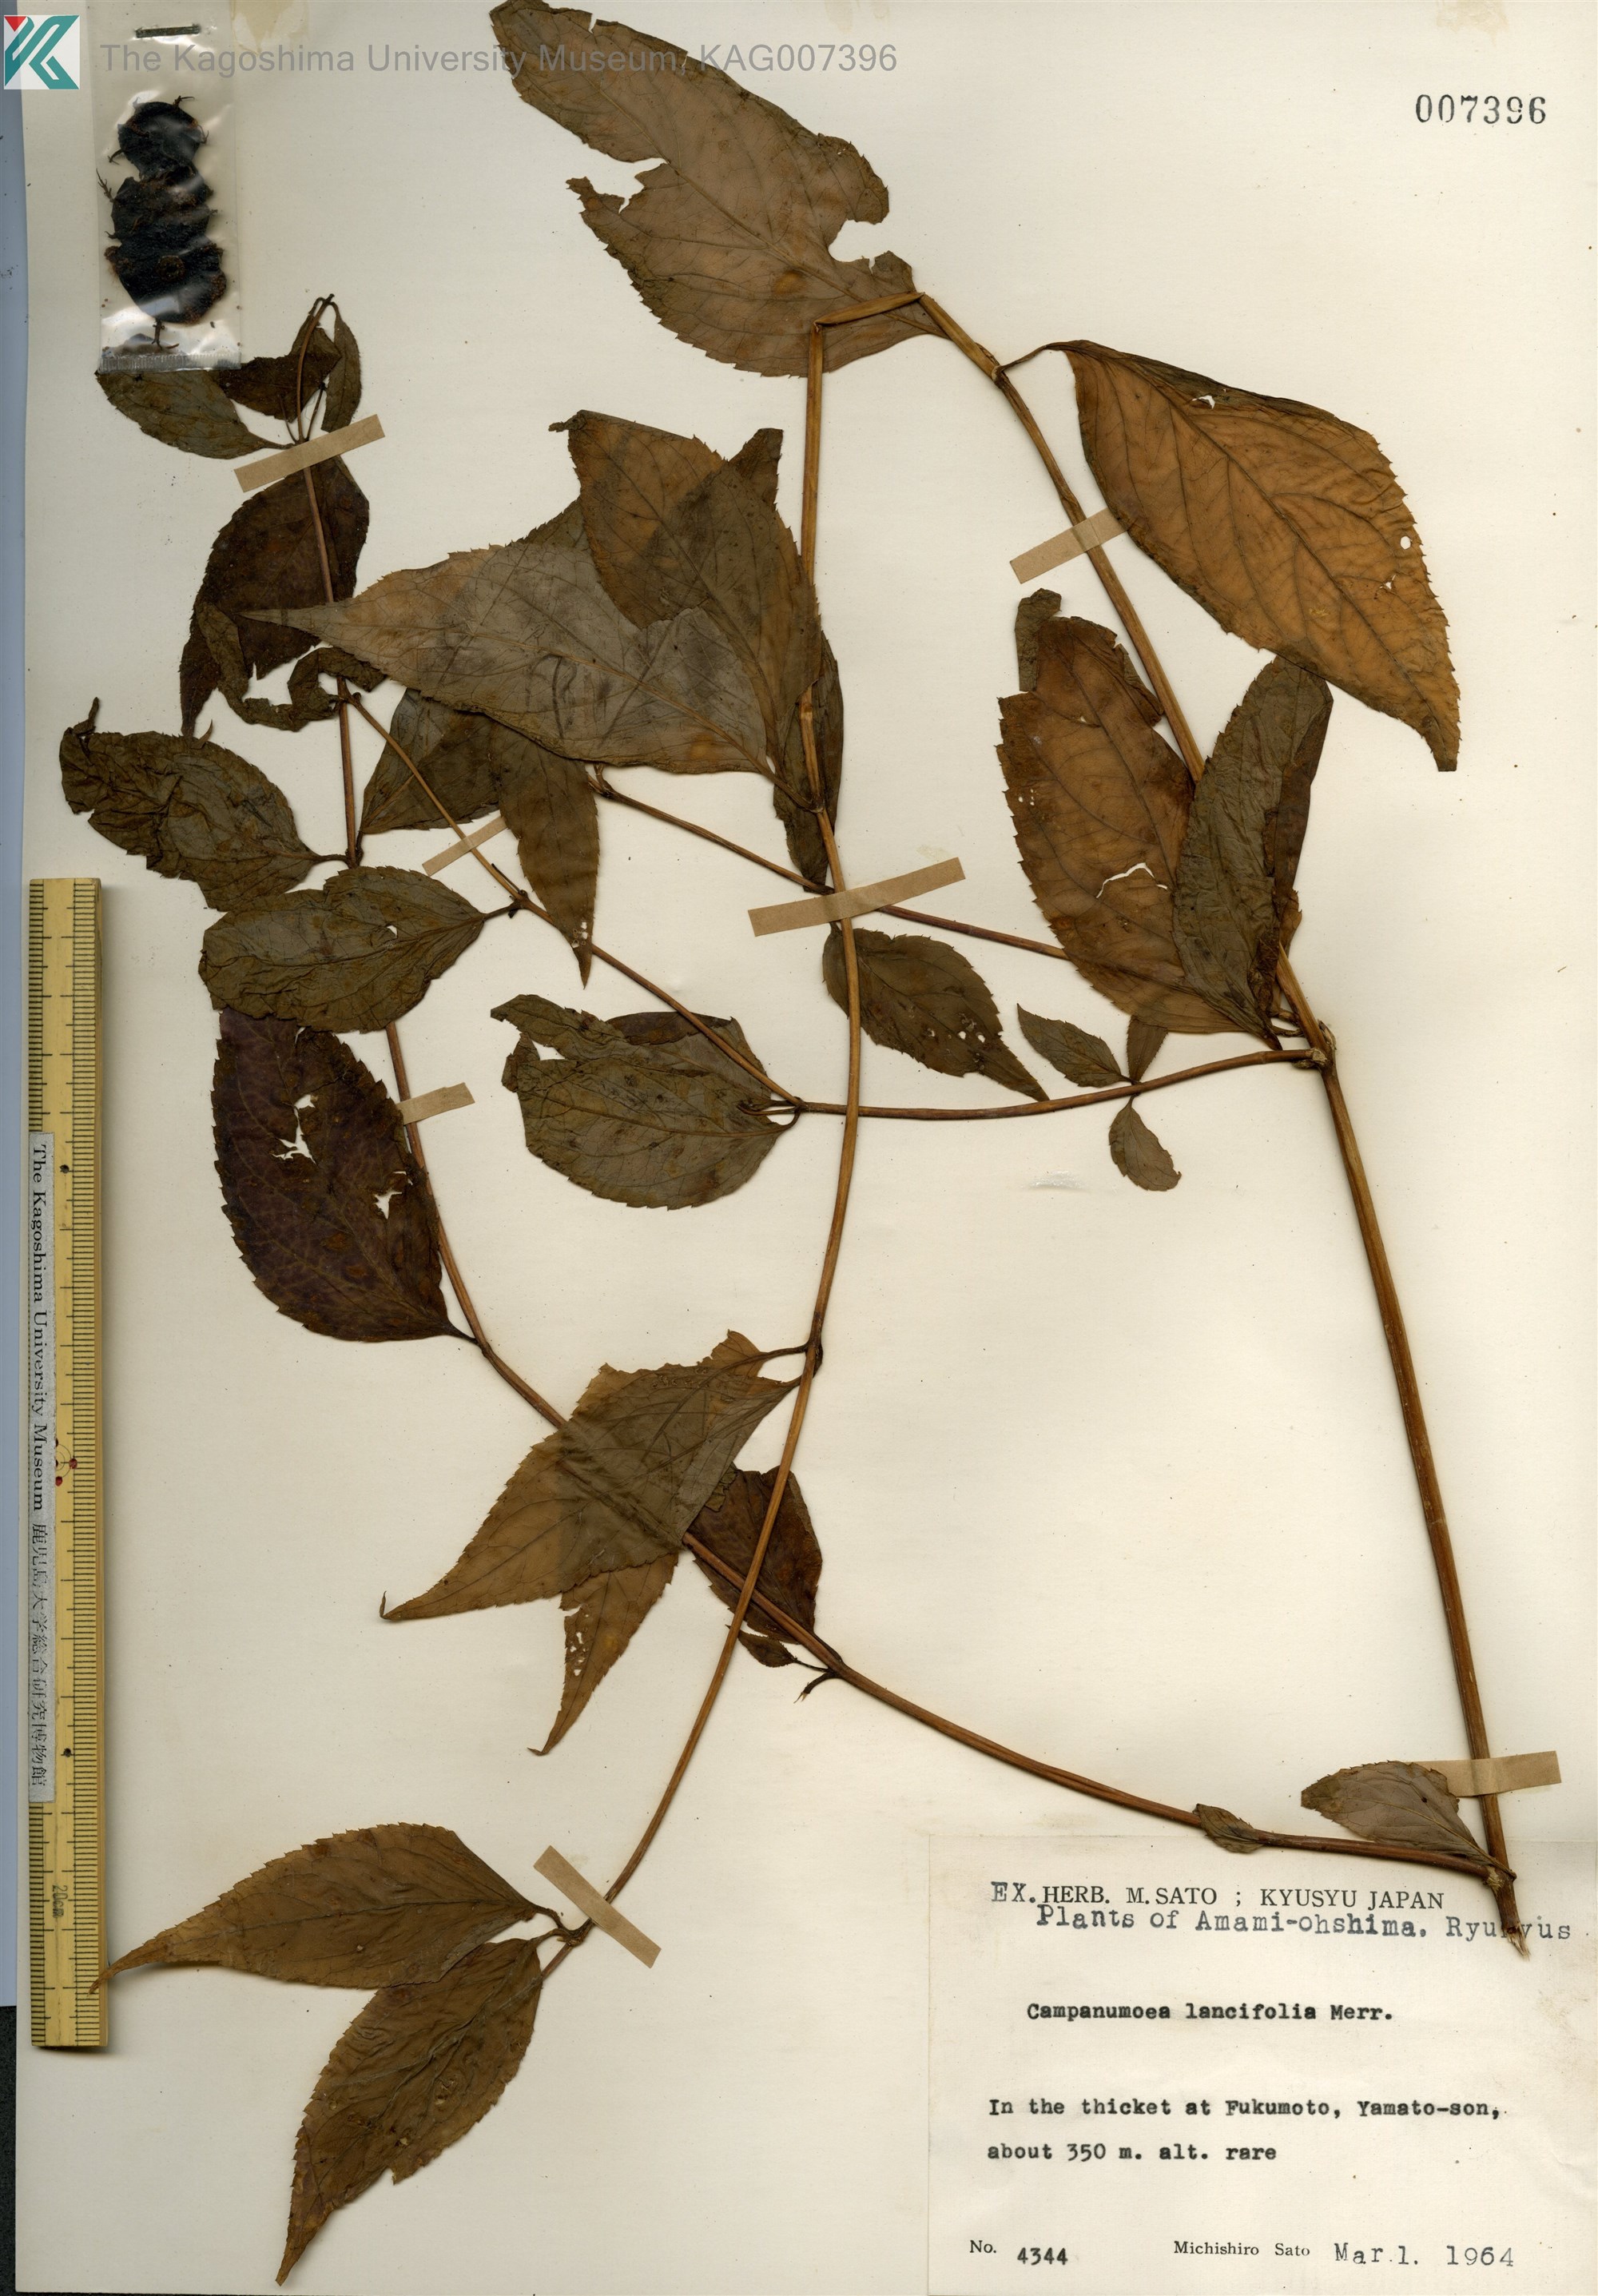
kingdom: Plantae
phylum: Tracheophyta
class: Magnoliopsida
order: Asterales
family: Campanulaceae
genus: Cyclocodon
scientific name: Cyclocodon lancifolius
